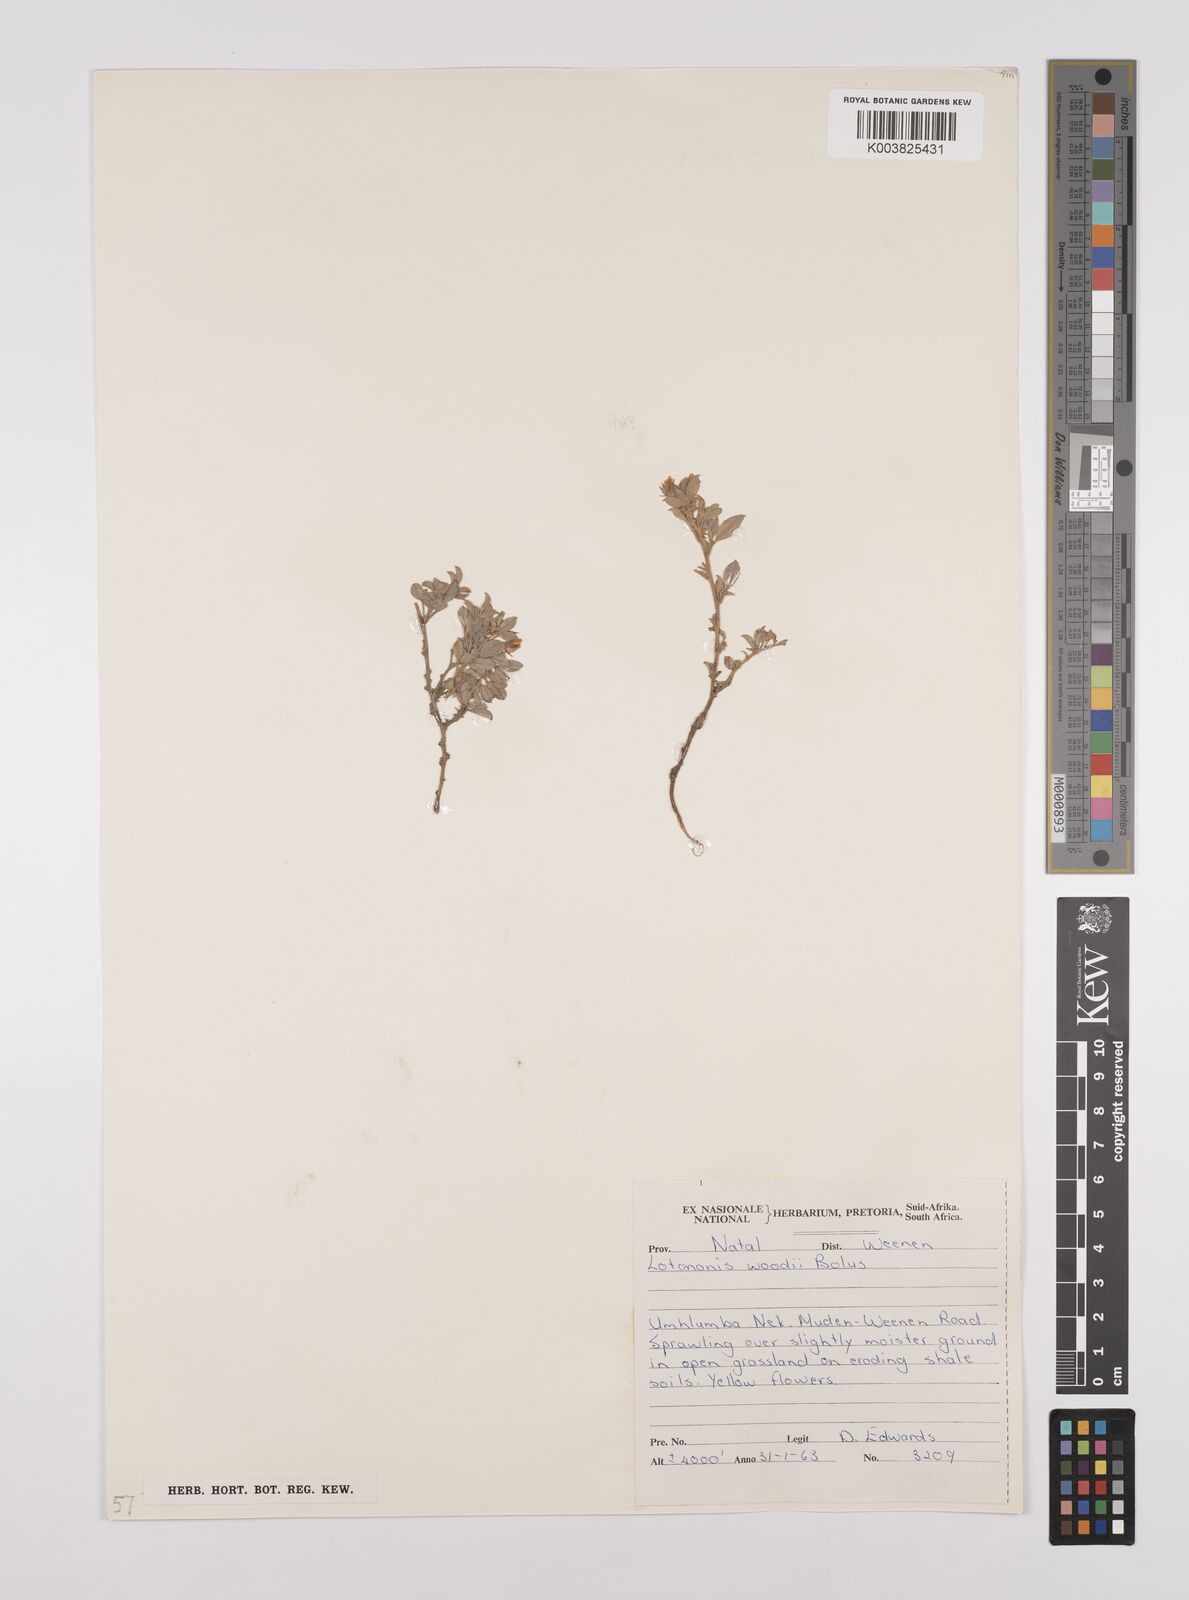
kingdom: Plantae
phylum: Tracheophyta
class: Magnoliopsida
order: Fabales
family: Fabaceae
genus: Lotononis
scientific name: Lotononis laxa
